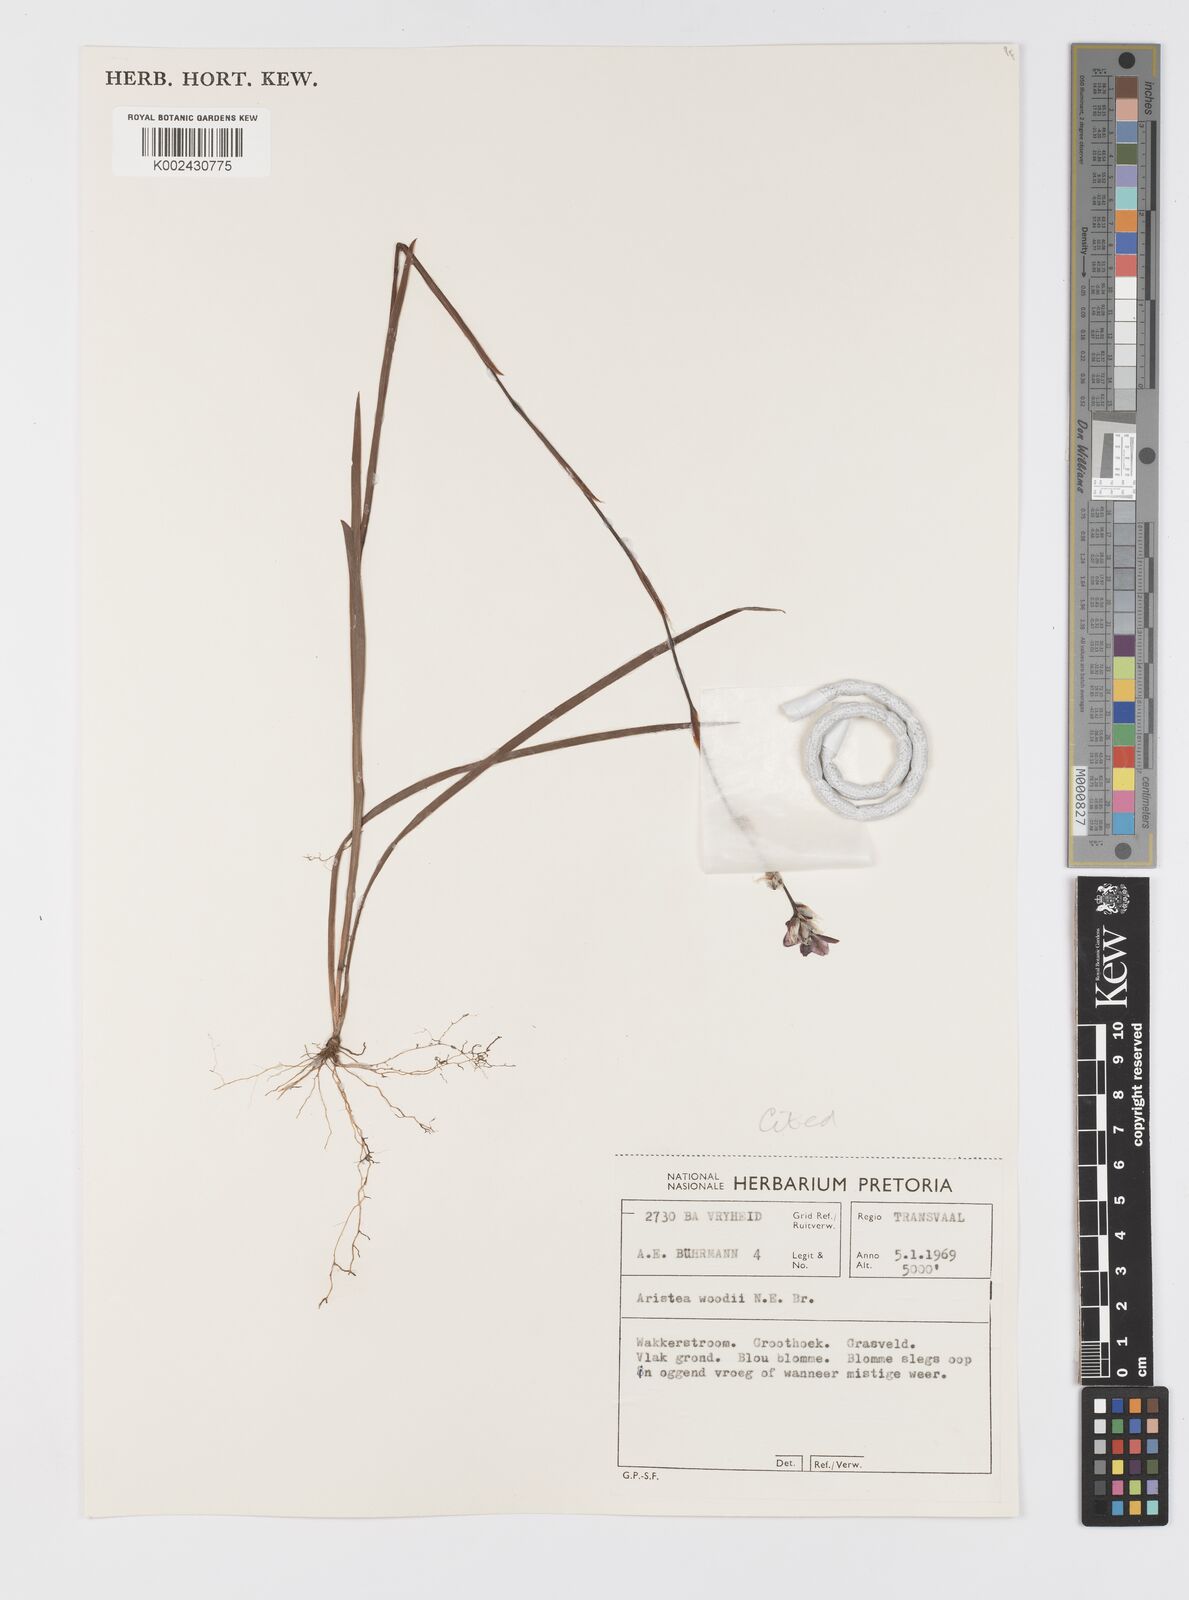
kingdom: Plantae
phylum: Tracheophyta
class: Liliopsida
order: Asparagales
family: Iridaceae
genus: Aristea
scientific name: Aristea torulosa
